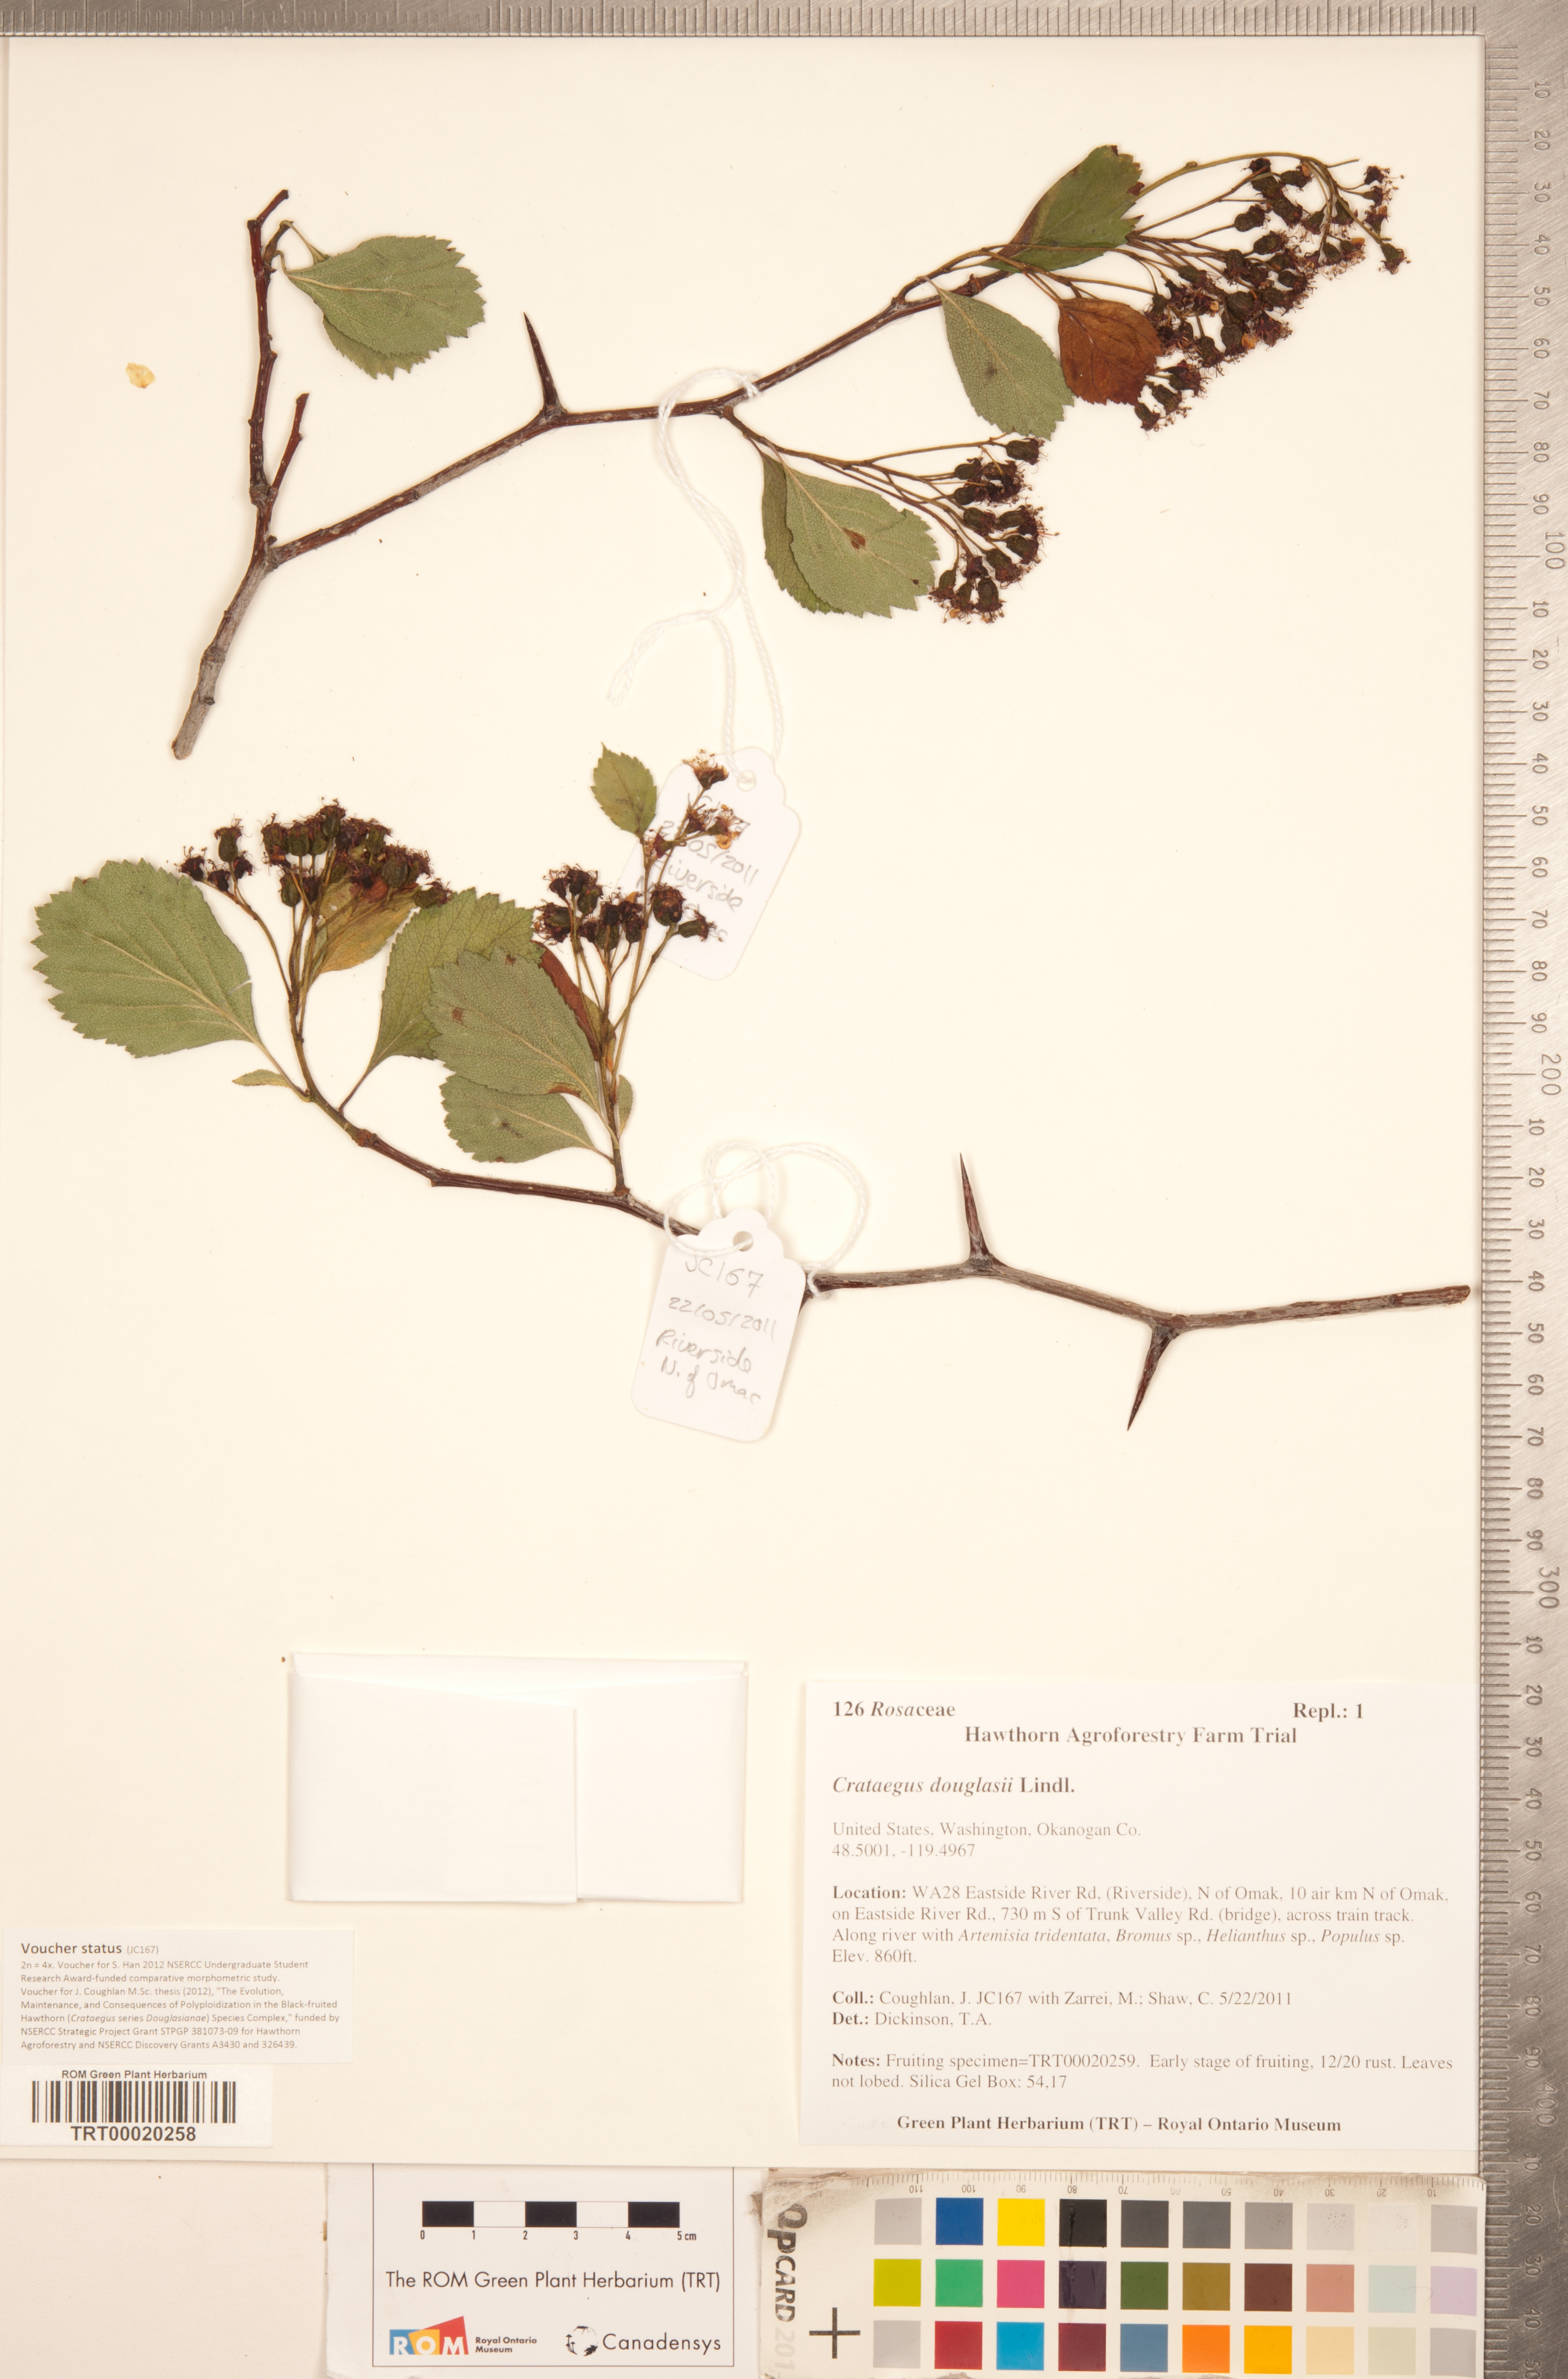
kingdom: Plantae
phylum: Tracheophyta
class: Magnoliopsida
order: Rosales
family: Rosaceae
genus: Crataegus
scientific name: Crataegus douglasii
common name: Black hawthorn
